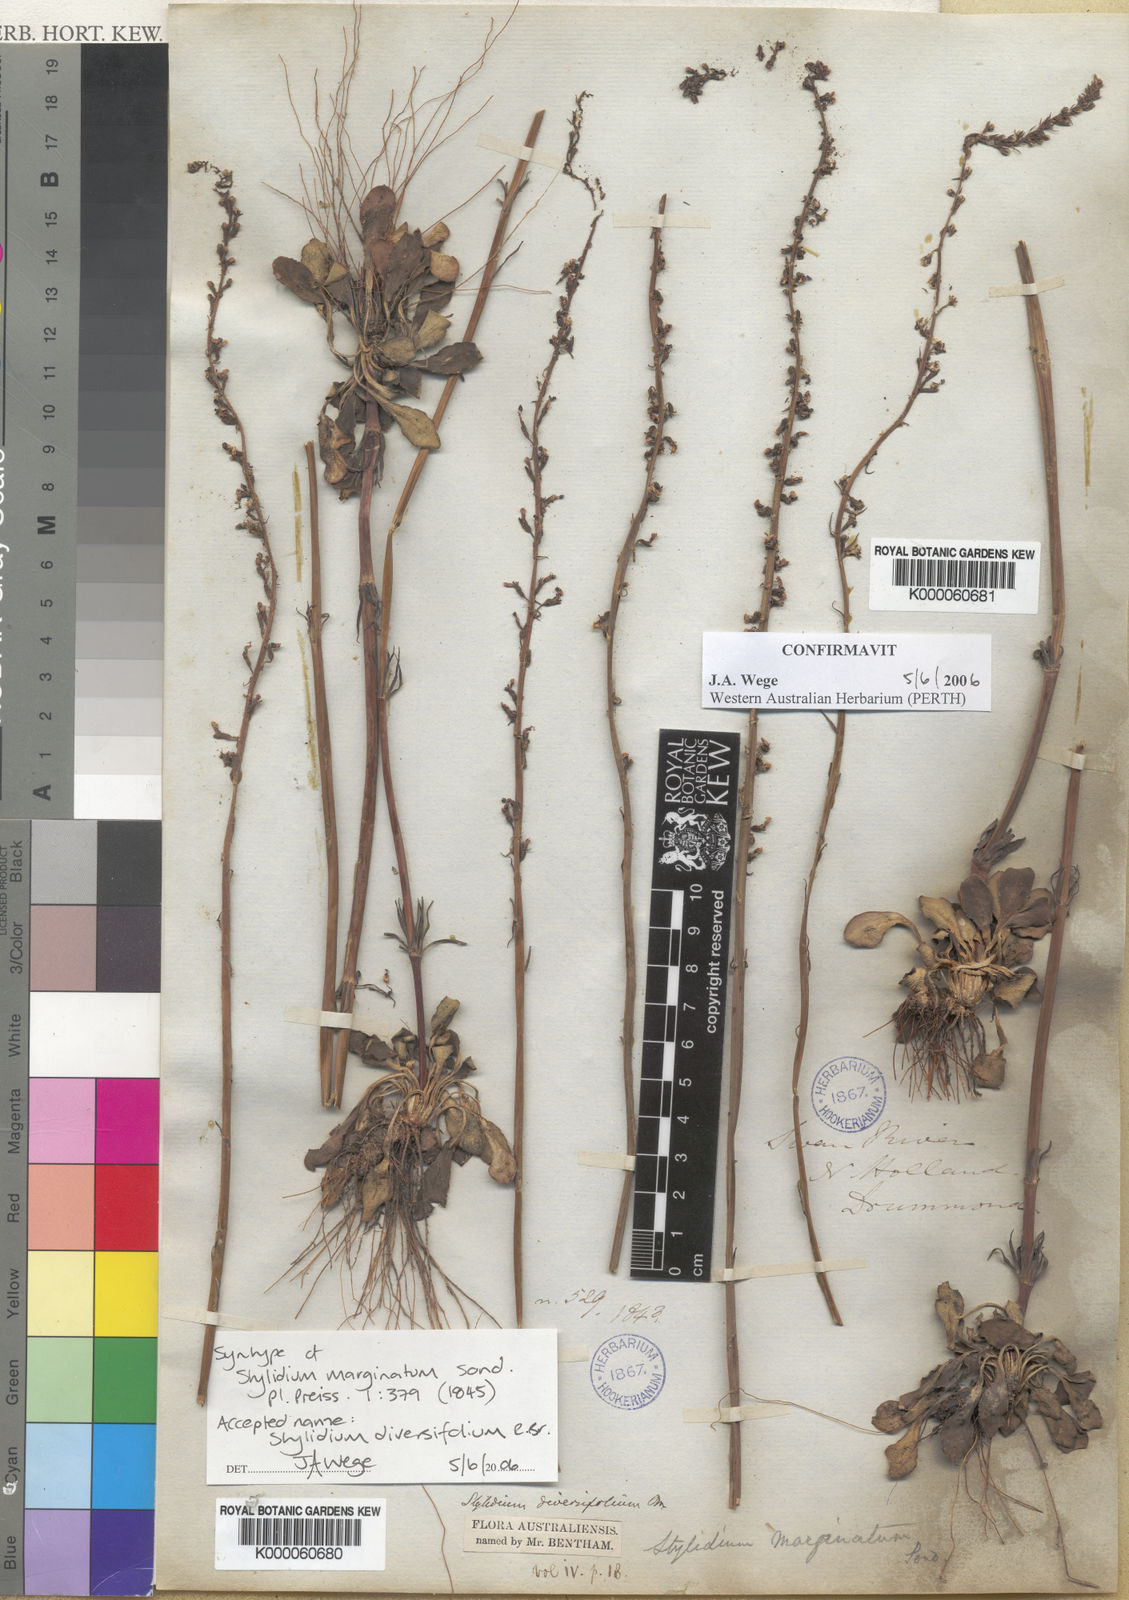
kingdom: Plantae
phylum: Tracheophyta
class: Magnoliopsida
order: Asterales
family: Stylidiaceae
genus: Stylidium
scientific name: Stylidium diversifolium
